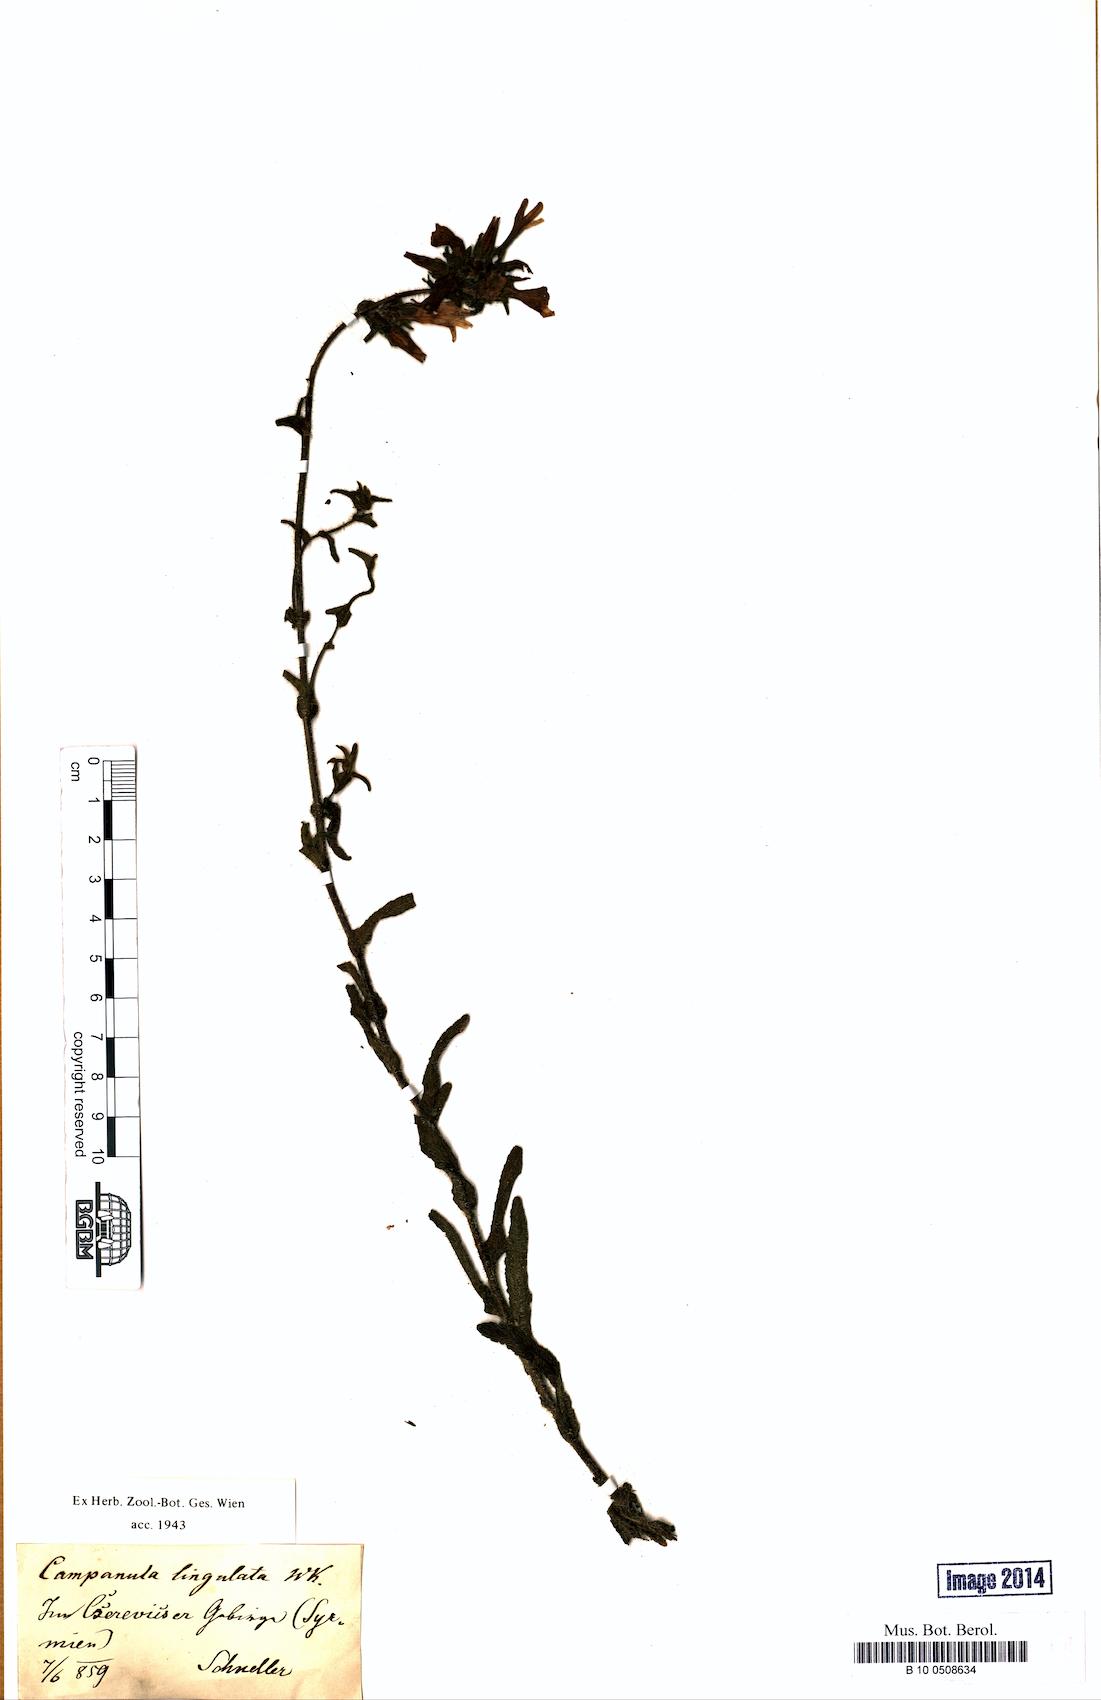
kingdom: Plantae
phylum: Tracheophyta
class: Magnoliopsida
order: Asterales
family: Campanulaceae
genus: Campanula
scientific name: Campanula lingulata
